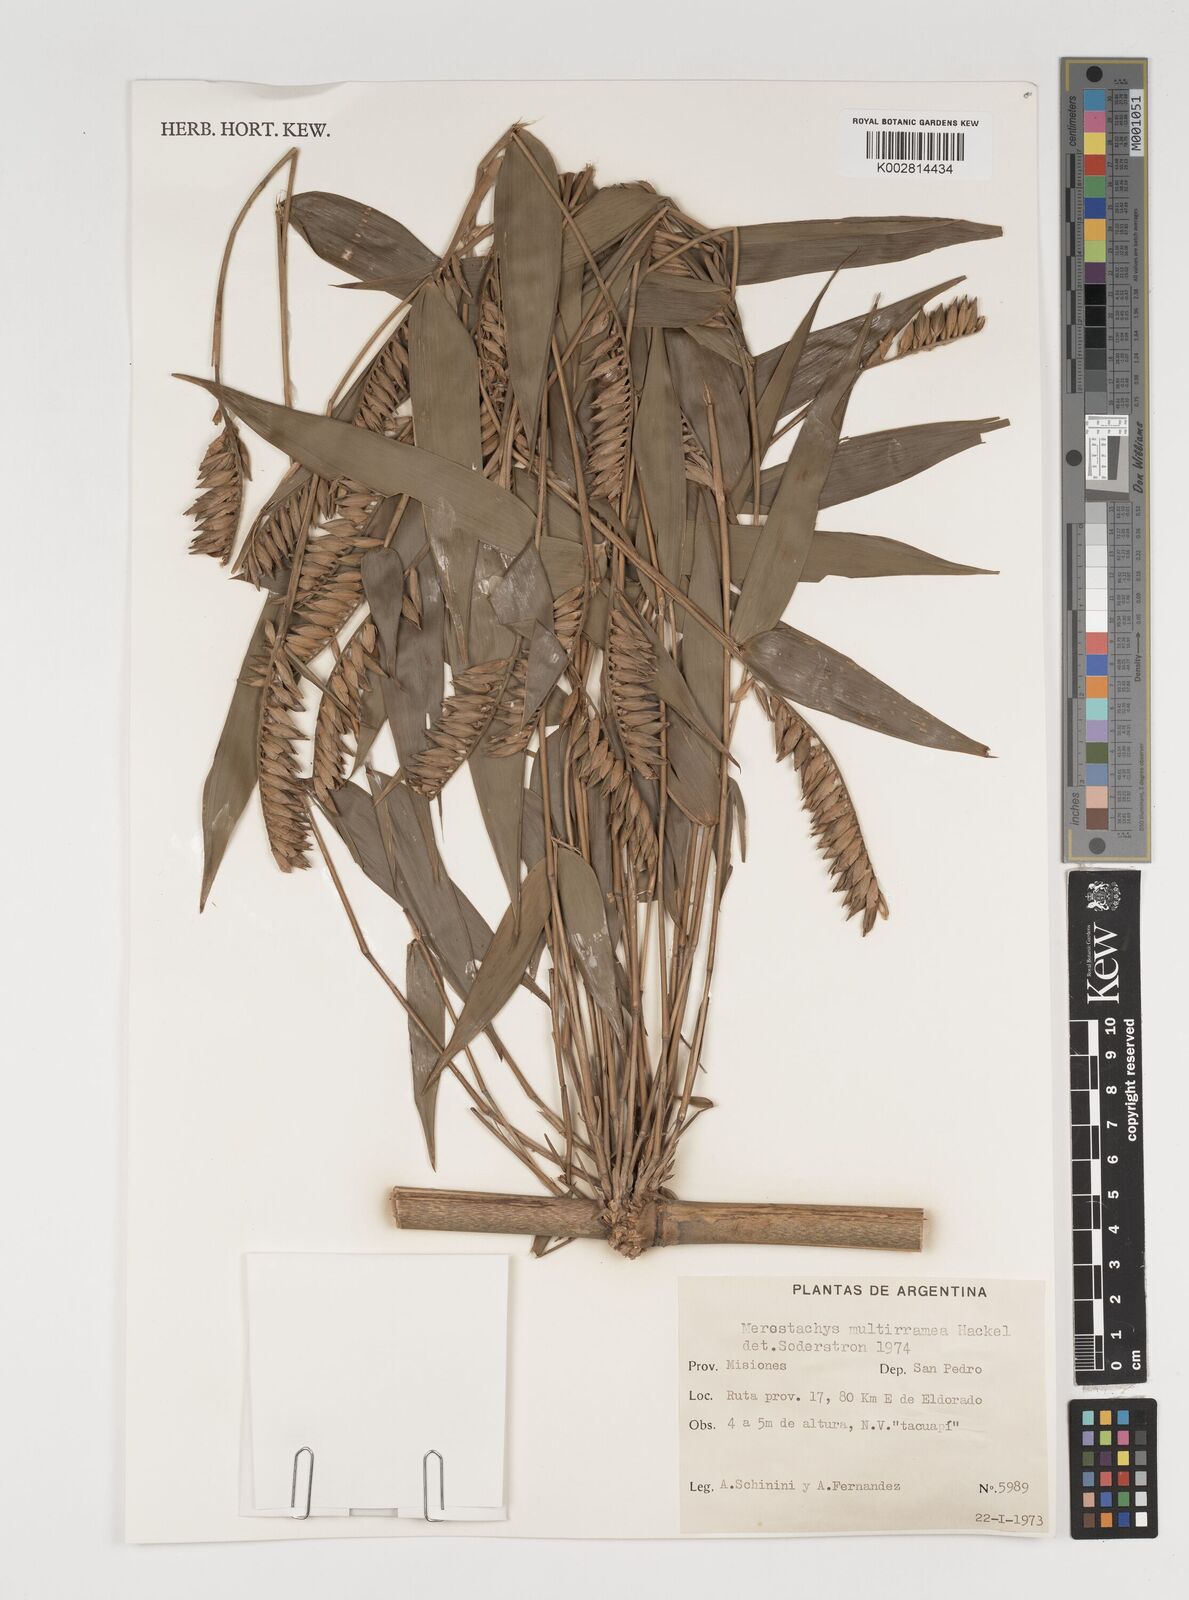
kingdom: Plantae
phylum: Tracheophyta
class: Liliopsida
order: Poales
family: Poaceae
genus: Merostachys
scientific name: Merostachys claussenii
